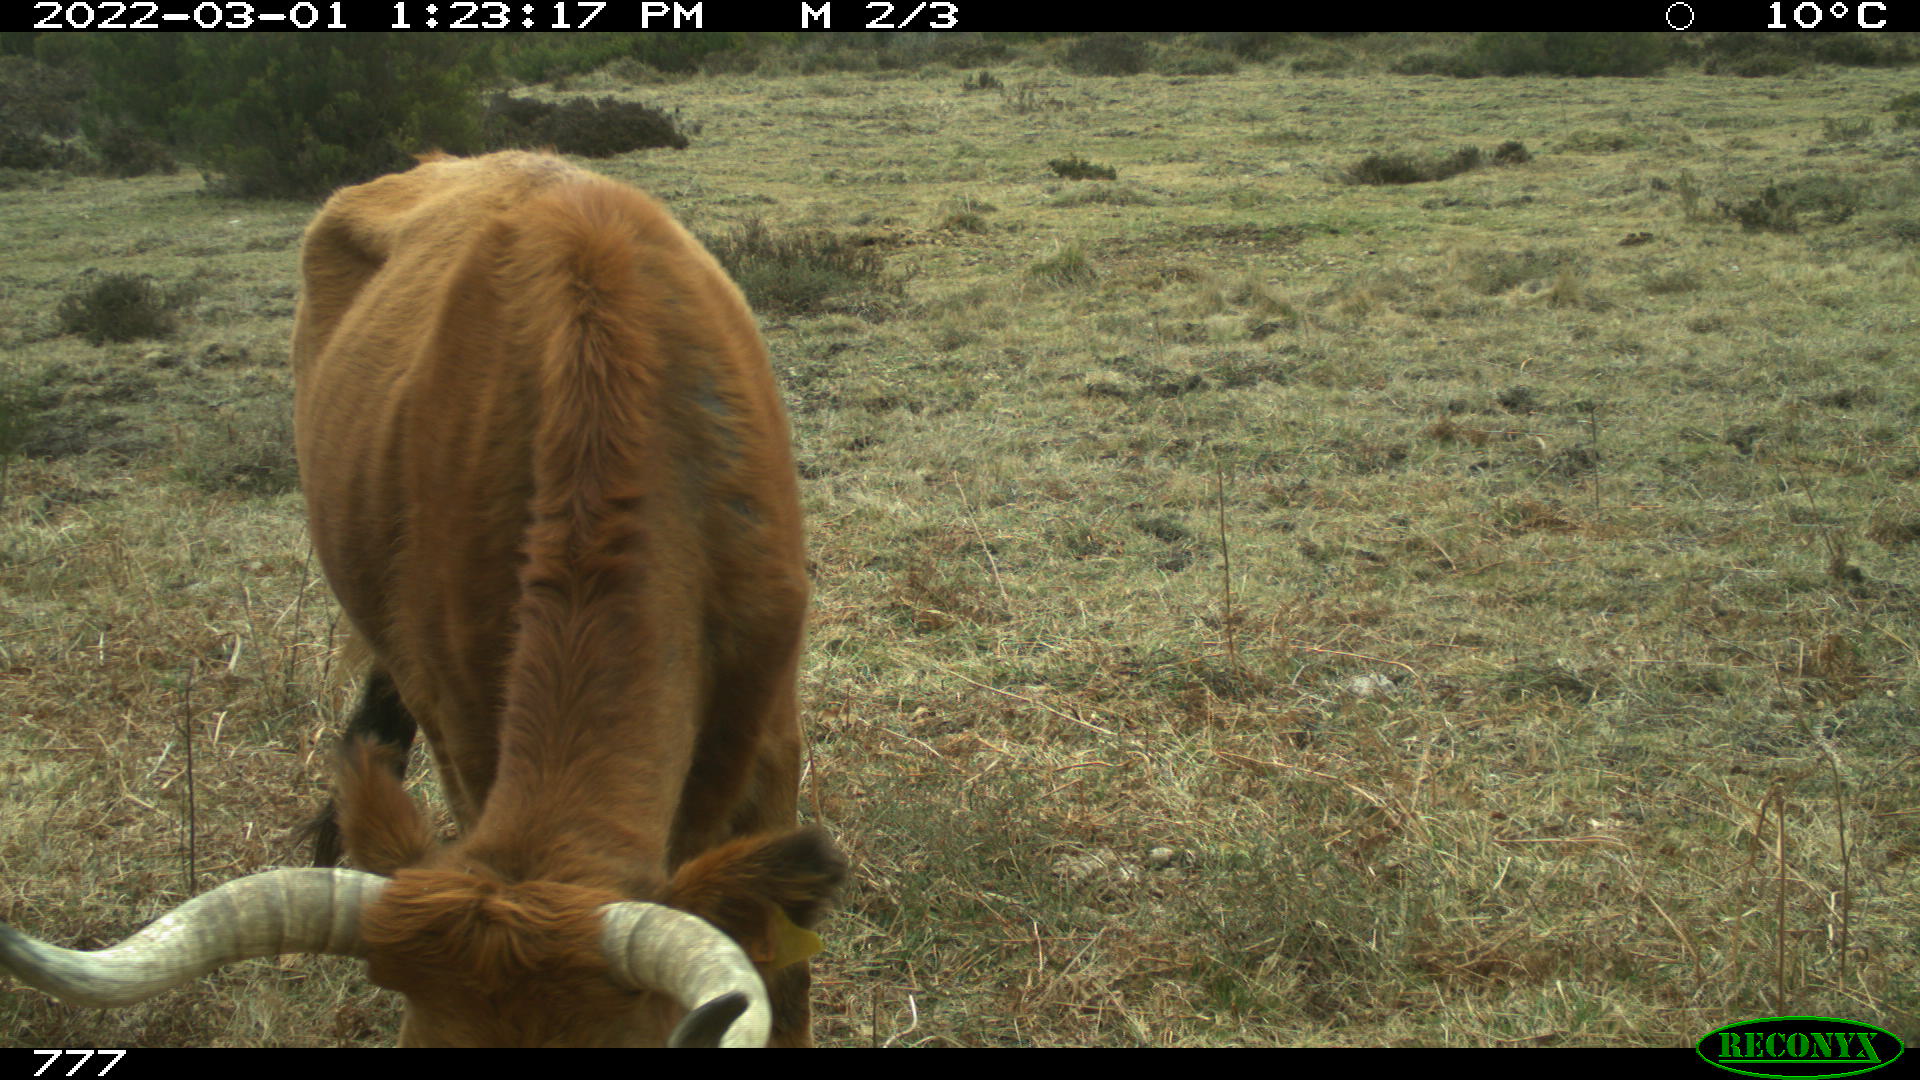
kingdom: Animalia
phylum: Chordata
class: Mammalia
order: Artiodactyla
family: Bovidae
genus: Bos
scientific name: Bos taurus
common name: Domesticated cattle
